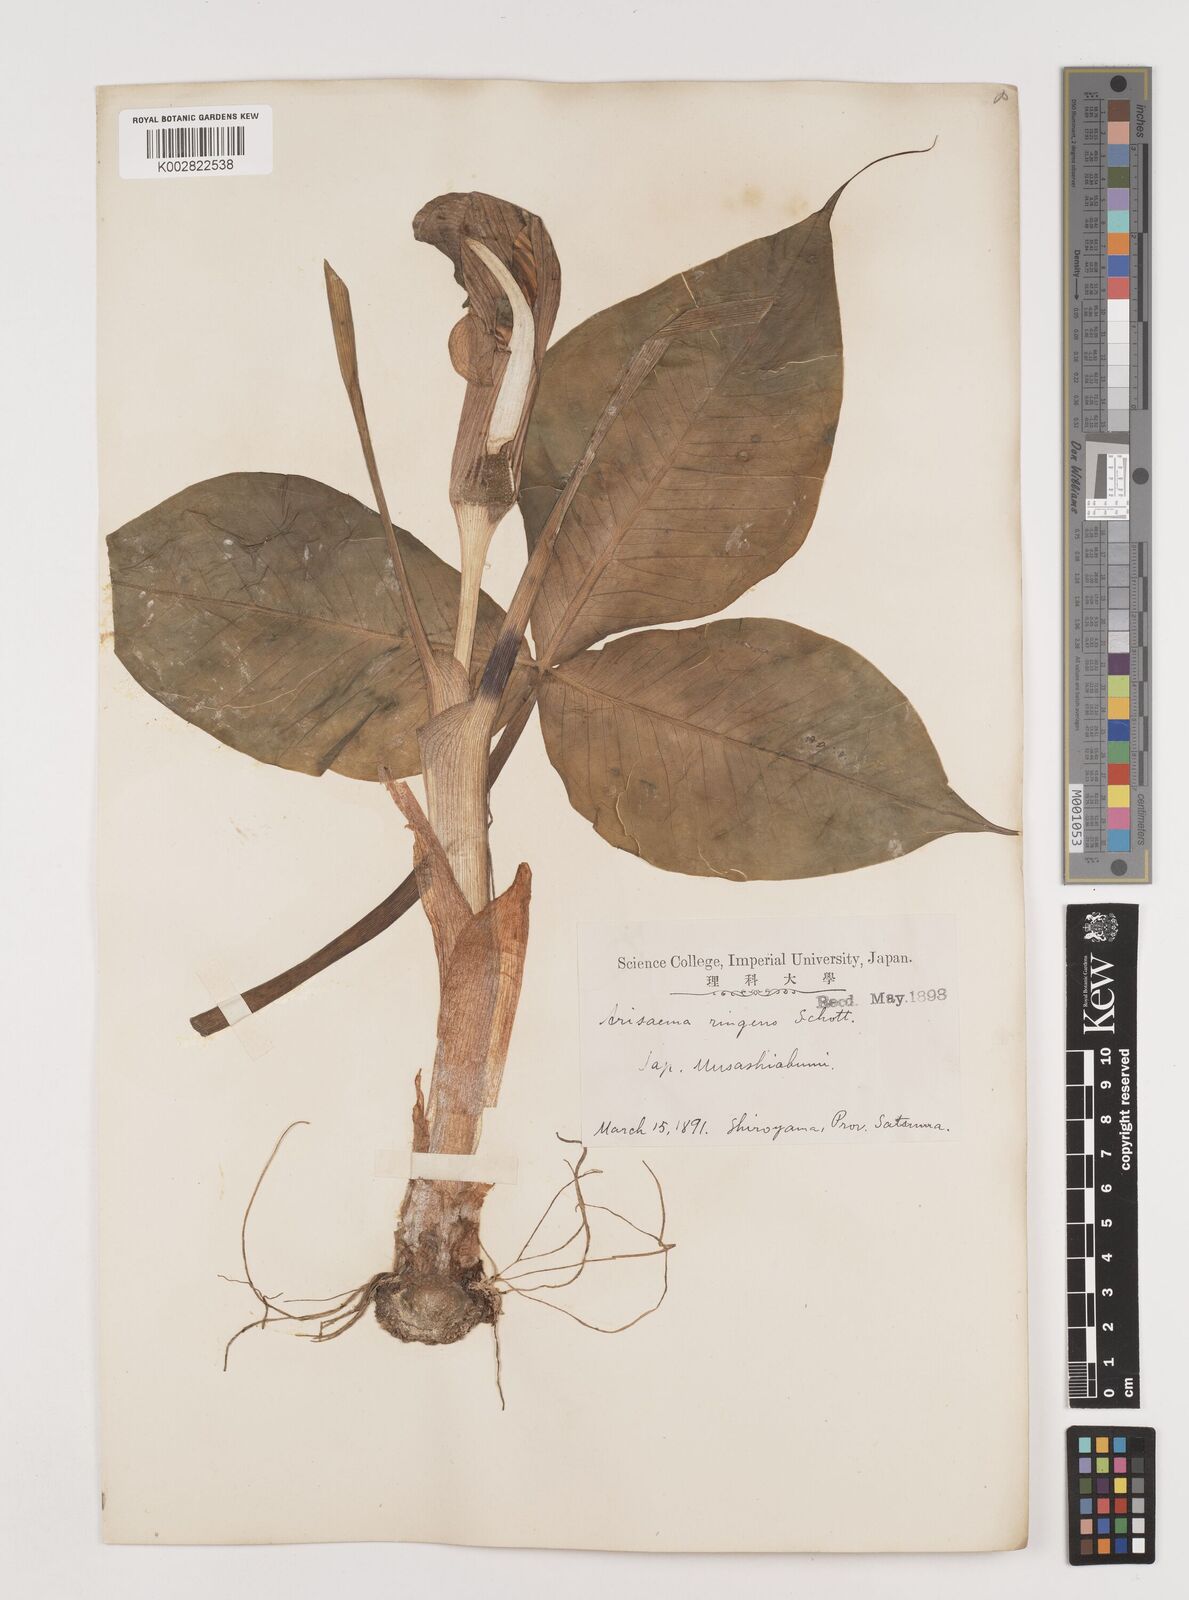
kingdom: Plantae
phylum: Tracheophyta
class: Liliopsida
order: Alismatales
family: Araceae
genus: Arisaema
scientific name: Arisaema ringens
